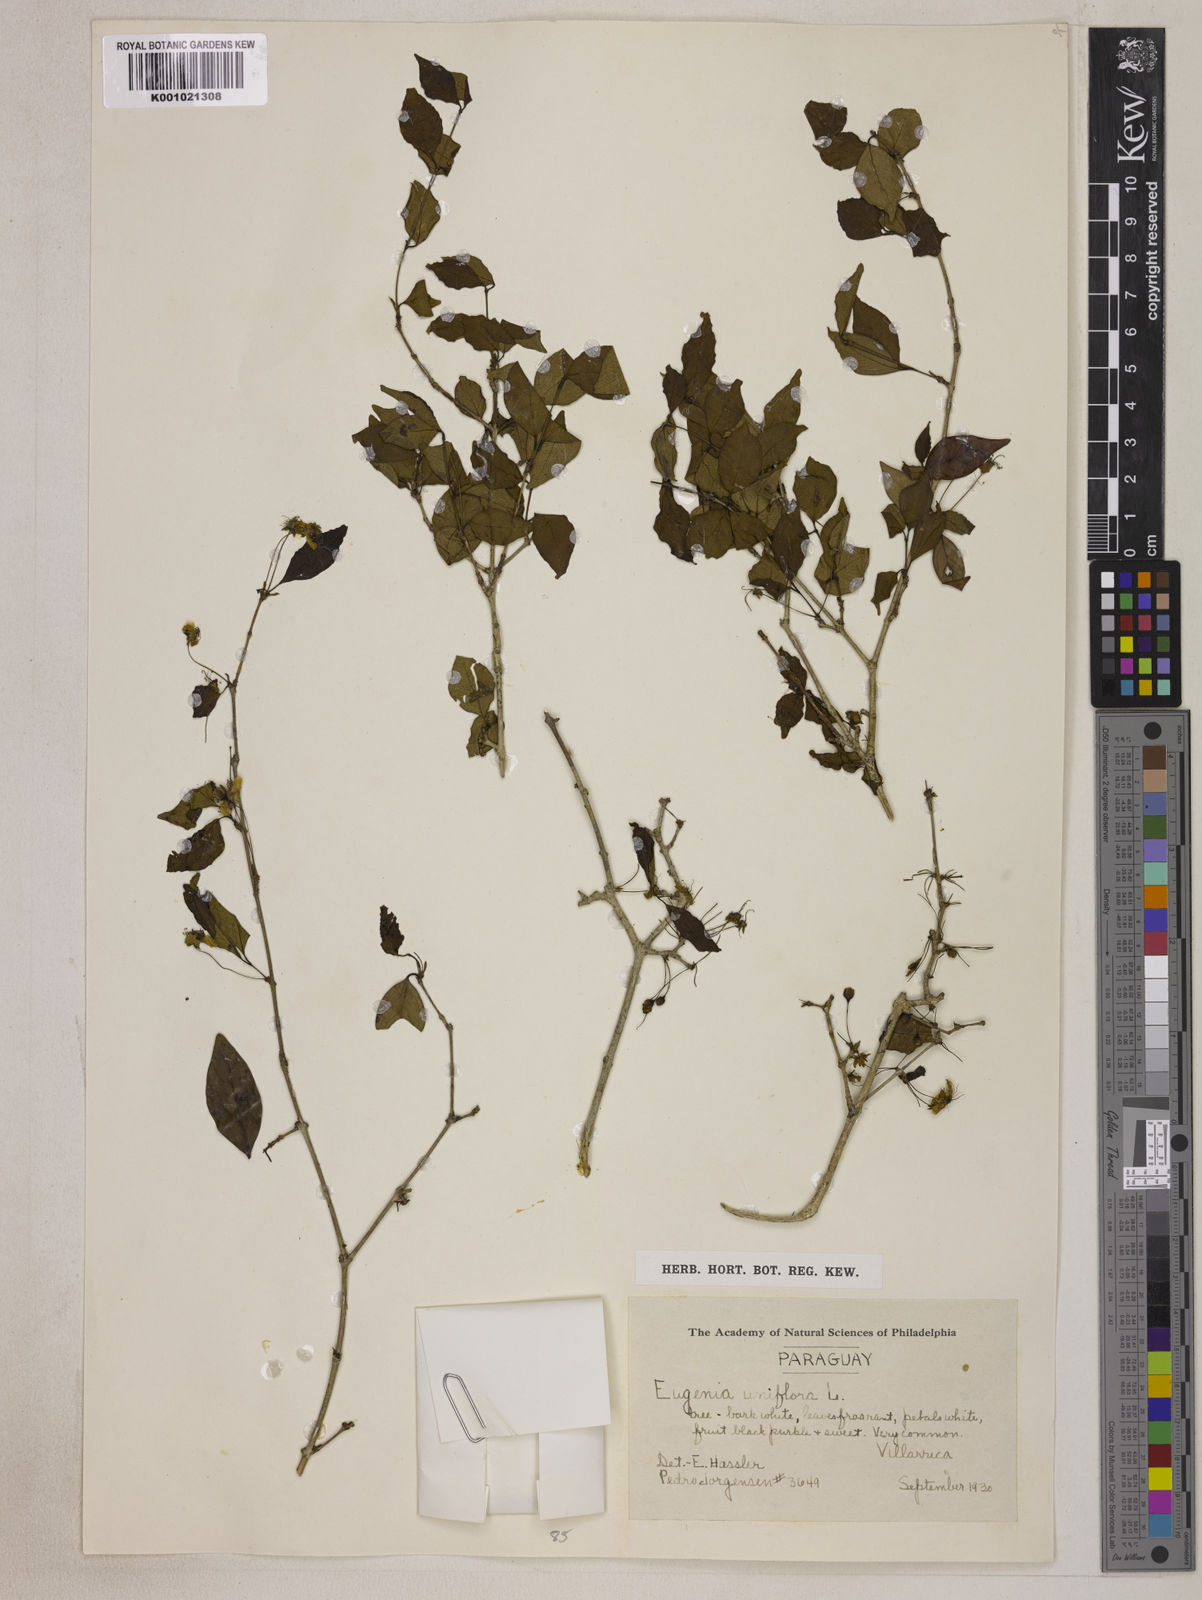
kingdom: Plantae
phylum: Tracheophyta
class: Magnoliopsida
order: Myrtales
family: Myrtaceae
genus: Eugenia
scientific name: Eugenia uniflora
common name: Surinam cherry
